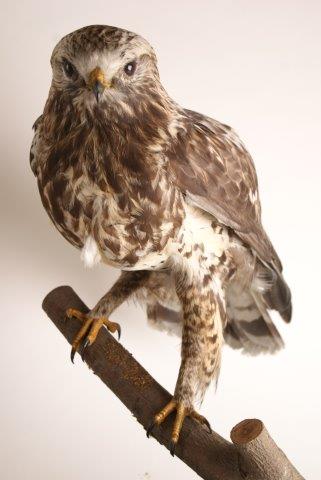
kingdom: Animalia
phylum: Chordata
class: Aves
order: Accipitriformes
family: Accipitridae
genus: Buteo
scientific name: Buteo buteo
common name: Common buzzard
